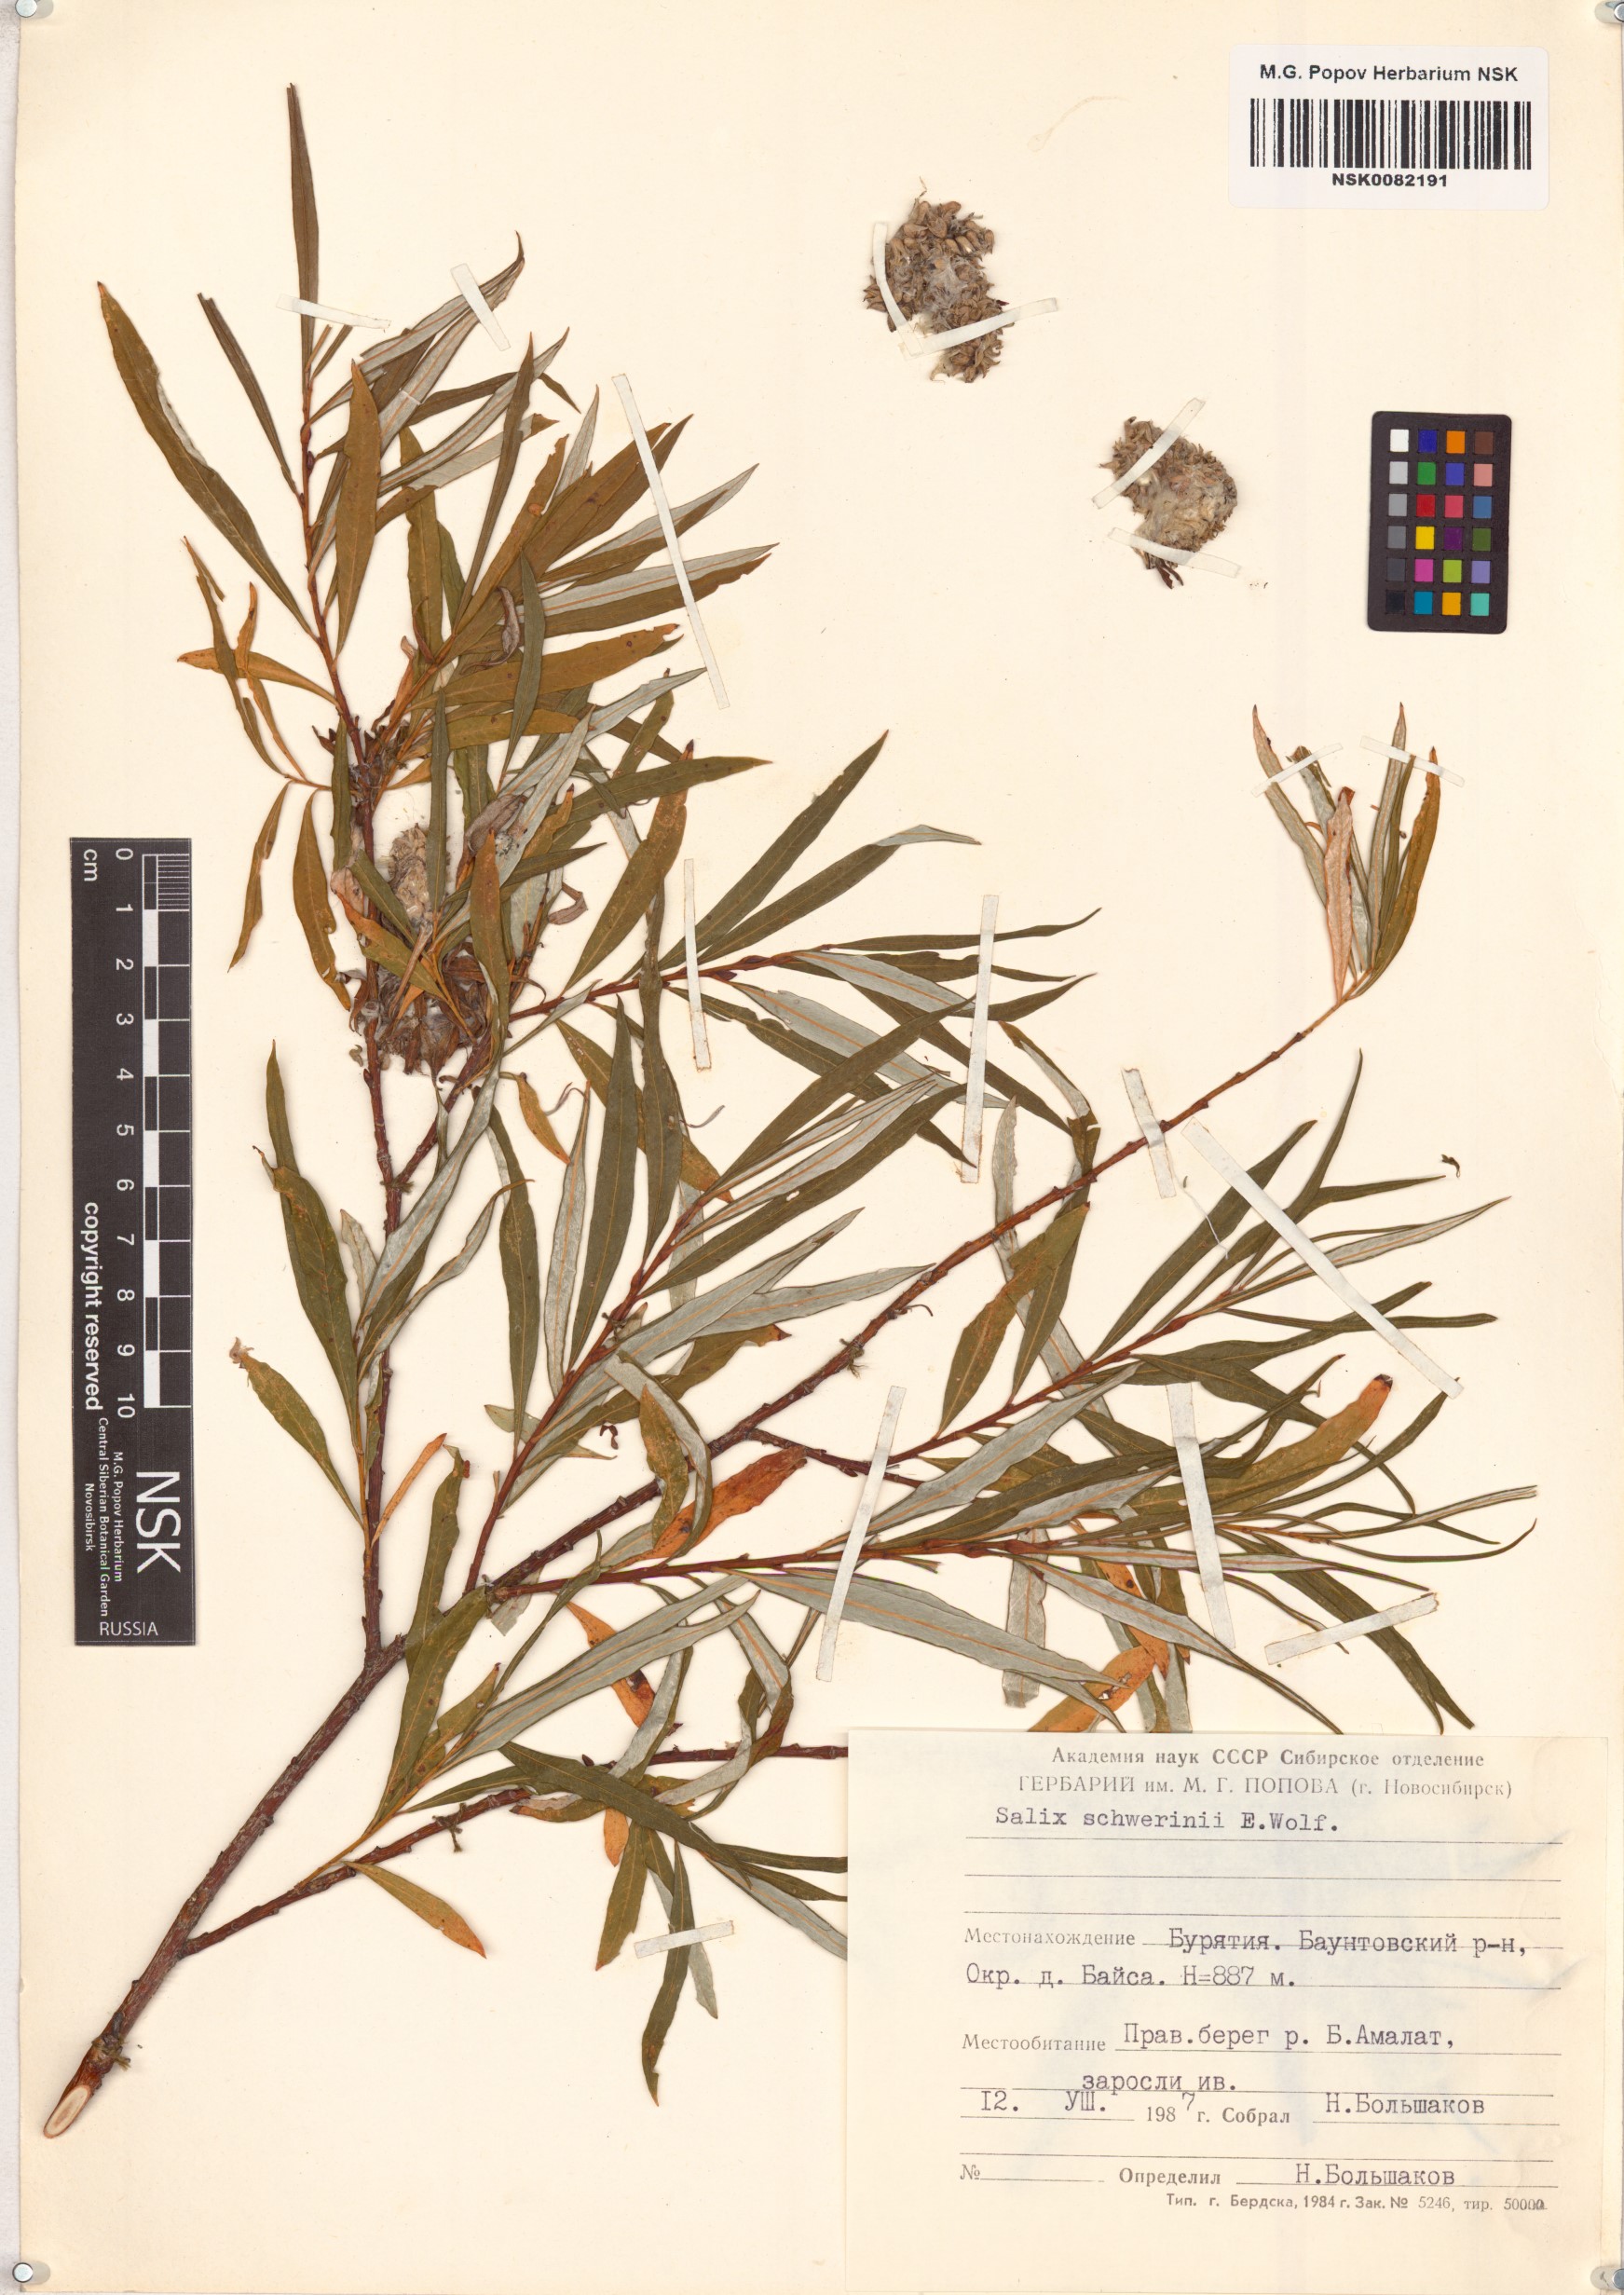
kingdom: Plantae
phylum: Tracheophyta
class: Magnoliopsida
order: Malpighiales
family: Salicaceae
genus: Salix
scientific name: Salix schwerinii
